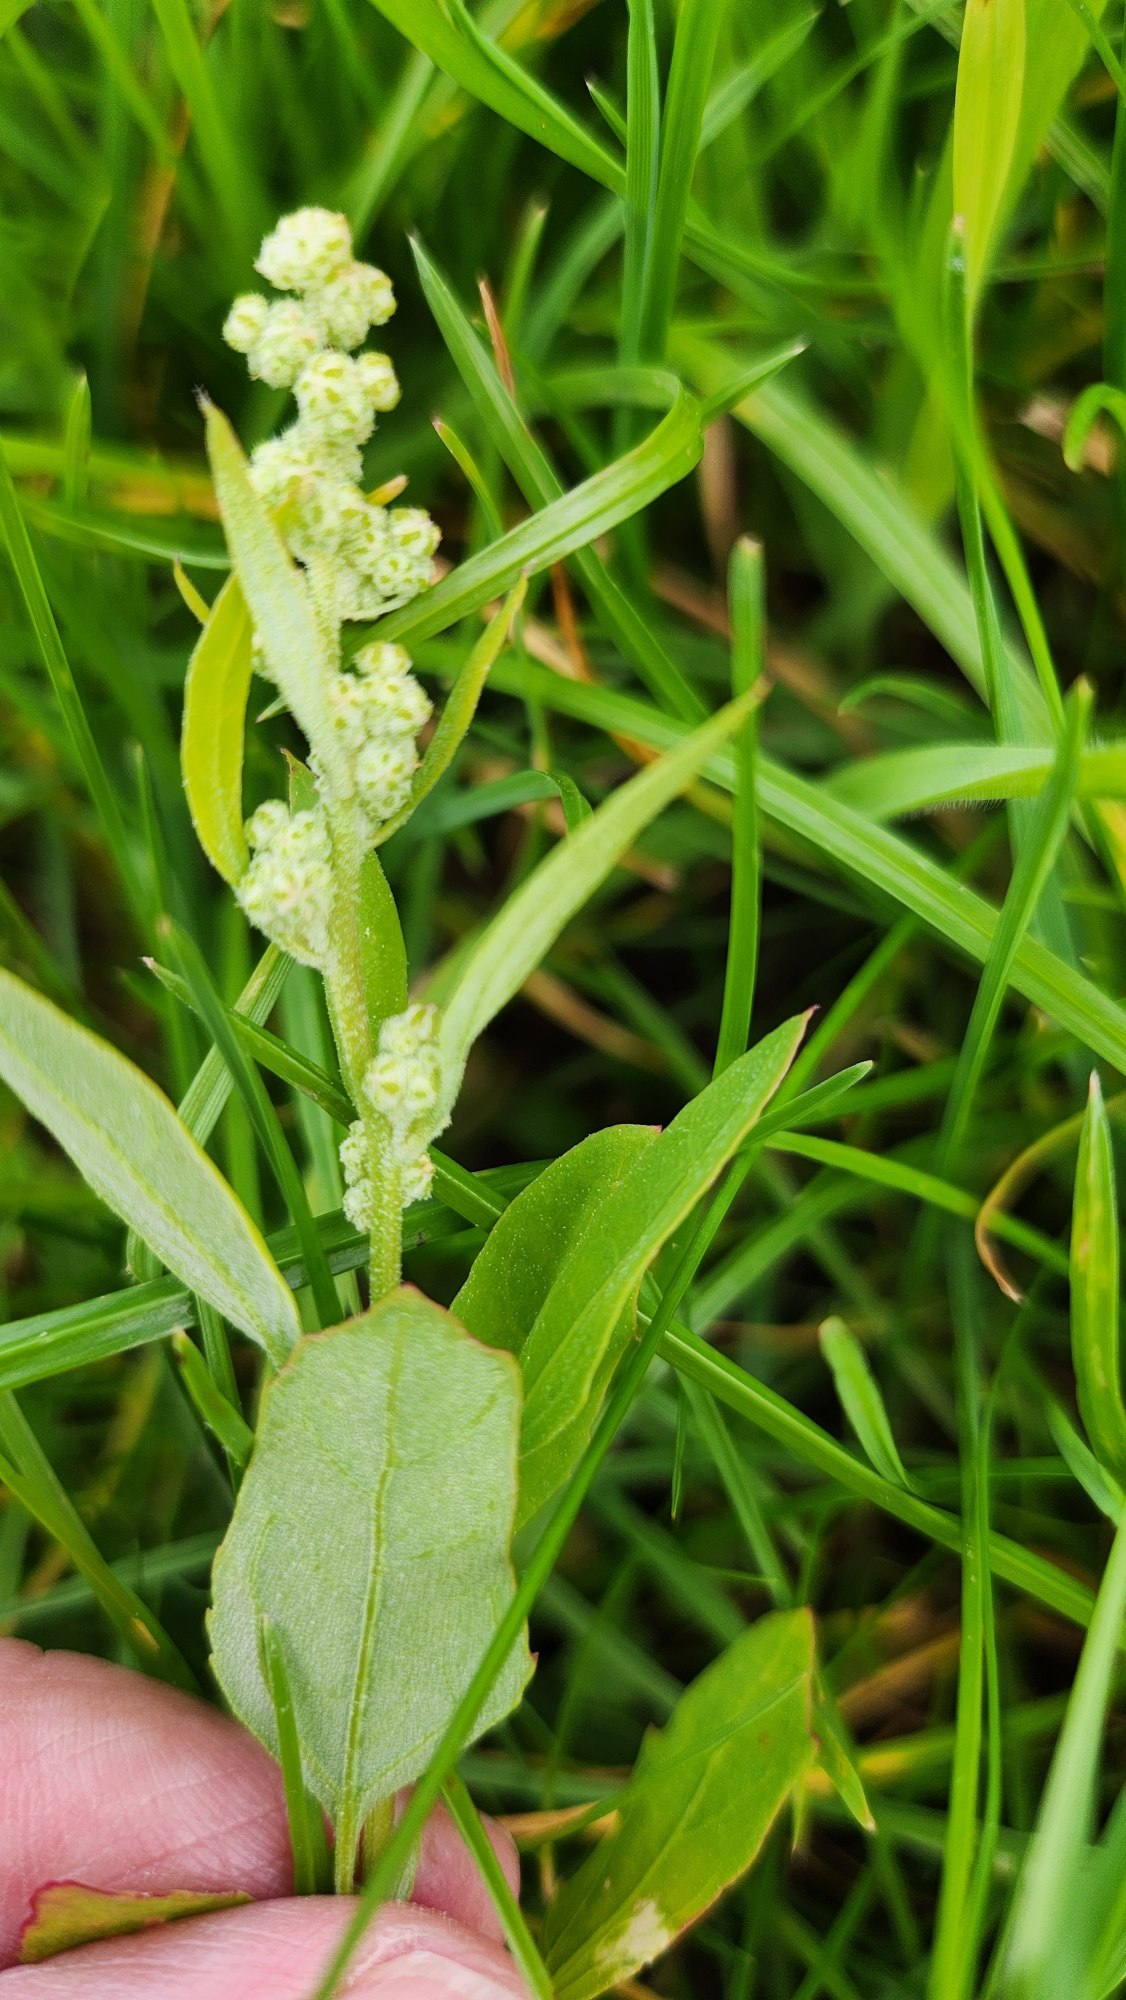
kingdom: Plantae
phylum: Tracheophyta
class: Magnoliopsida
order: Caryophyllales
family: Amaranthaceae
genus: Chenopodium
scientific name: Chenopodium album
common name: Hvidmelet gåsefod
